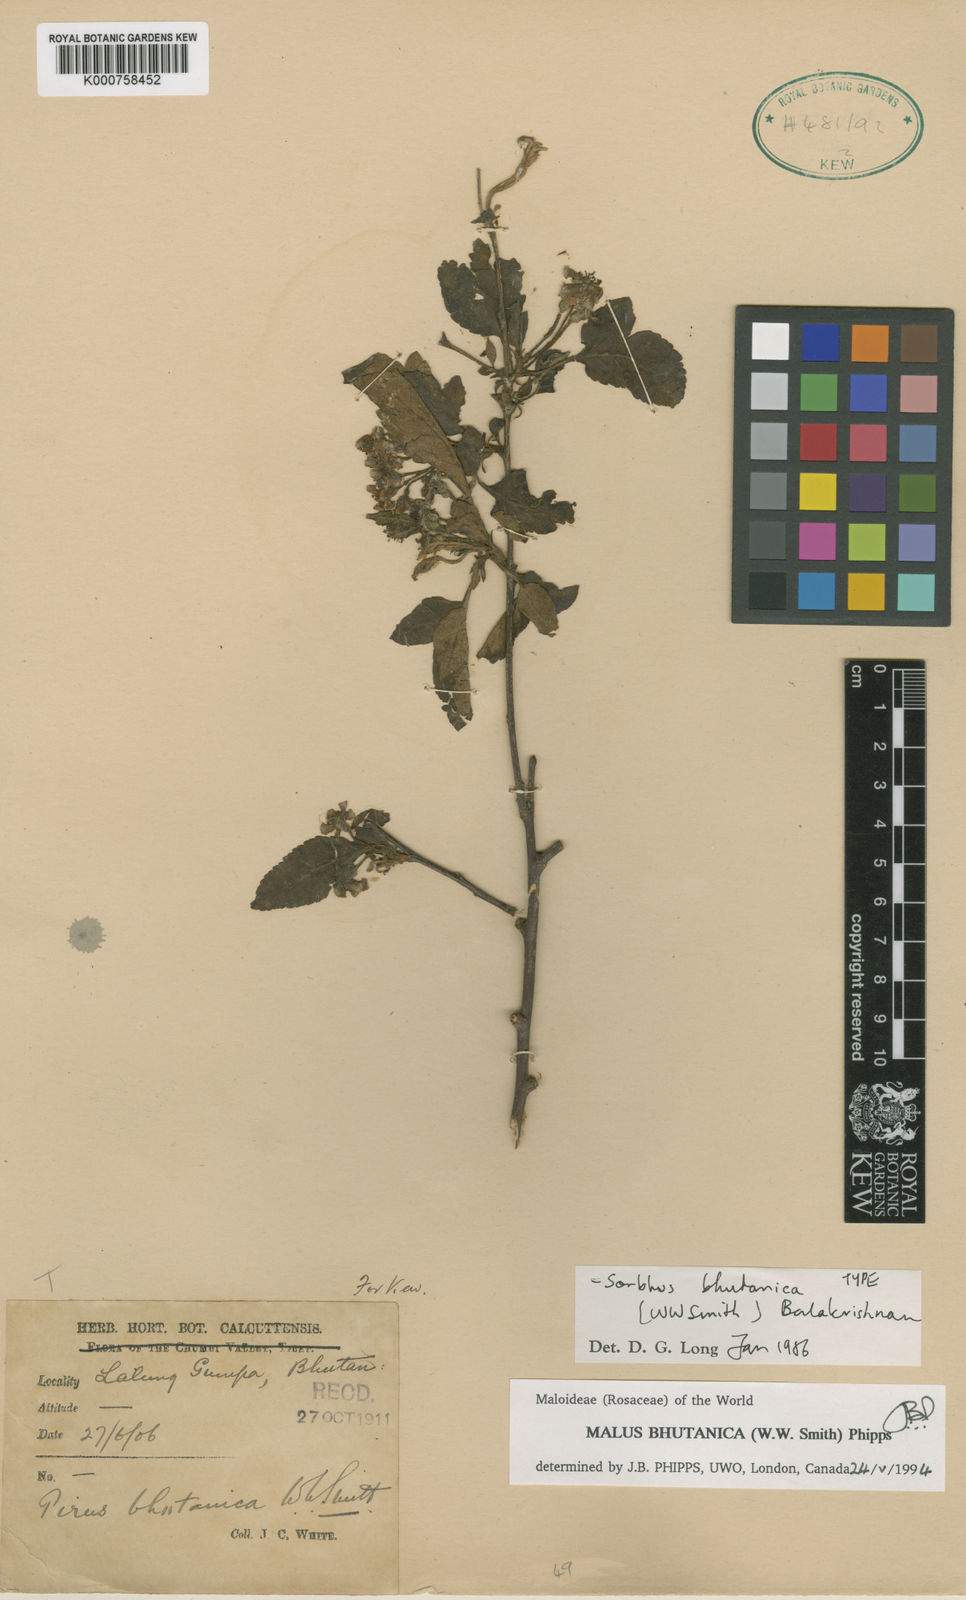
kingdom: Plantae
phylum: Tracheophyta
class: Magnoliopsida
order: Rosales
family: Rosaceae
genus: Malus
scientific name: Malus toringoides
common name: Cut-leaf crab apple
